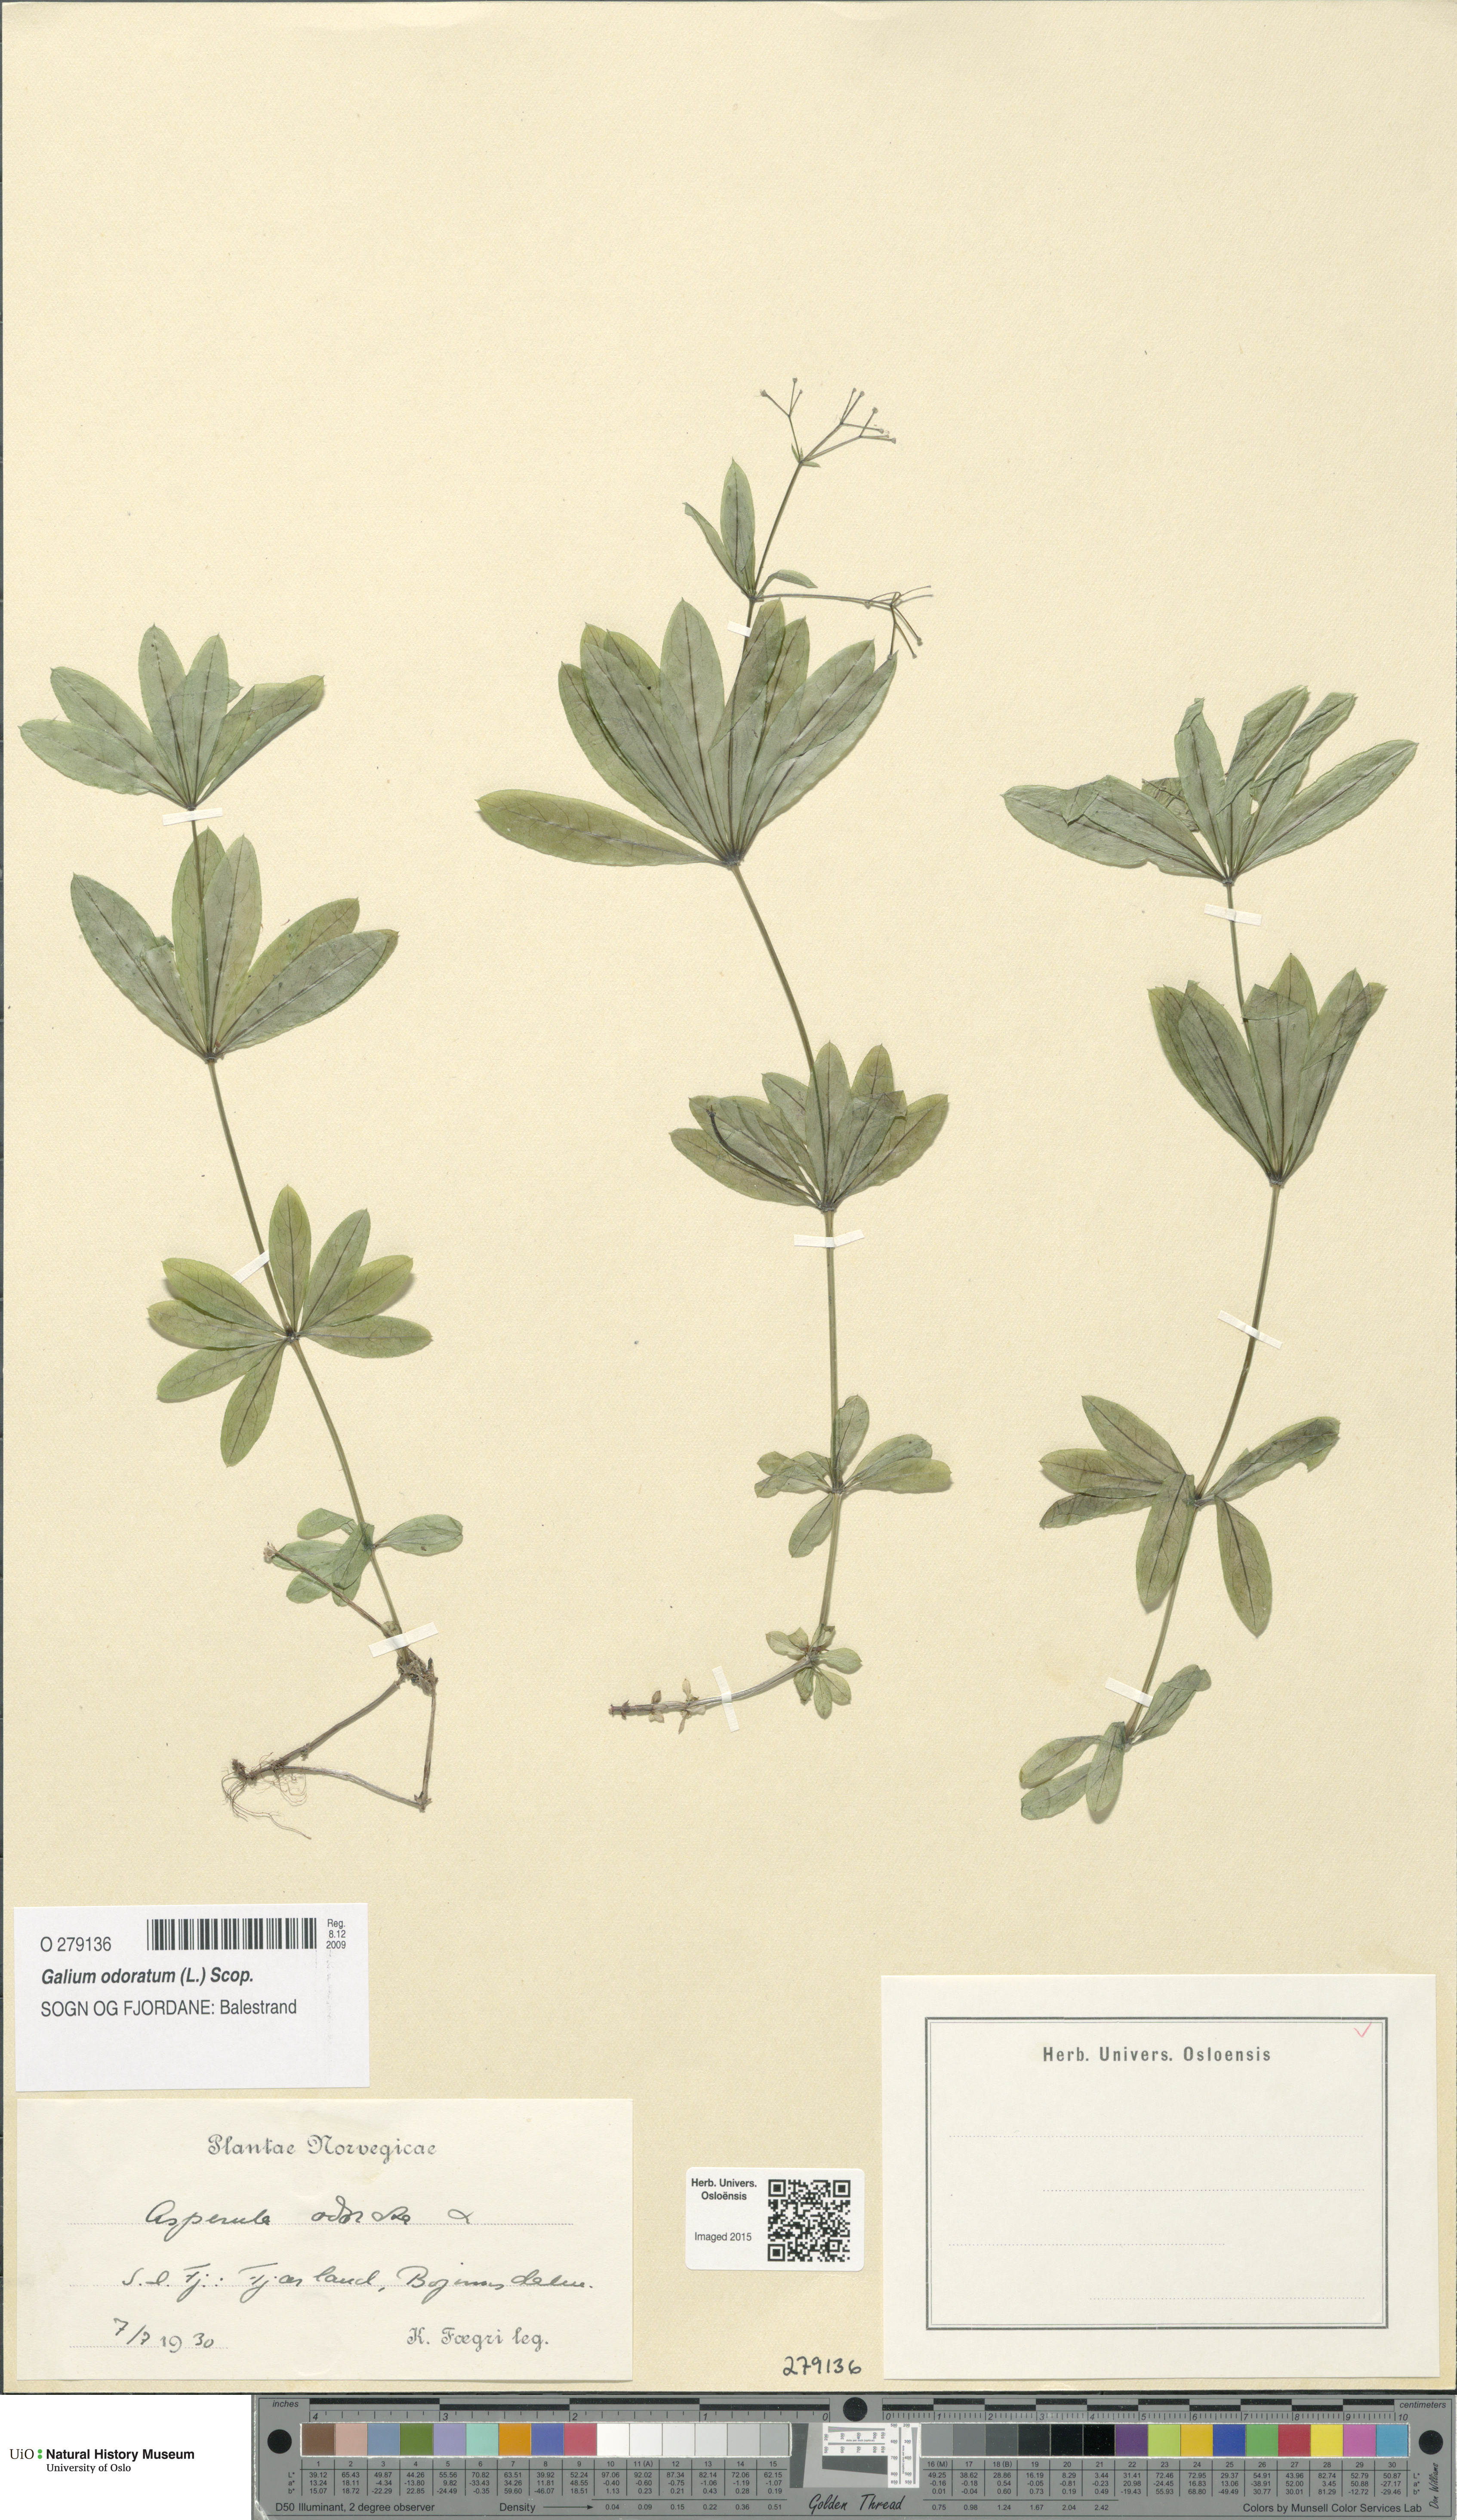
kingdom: Plantae
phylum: Tracheophyta
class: Magnoliopsida
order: Gentianales
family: Rubiaceae
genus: Galium
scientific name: Galium odoratum
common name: Sweet woodruff
